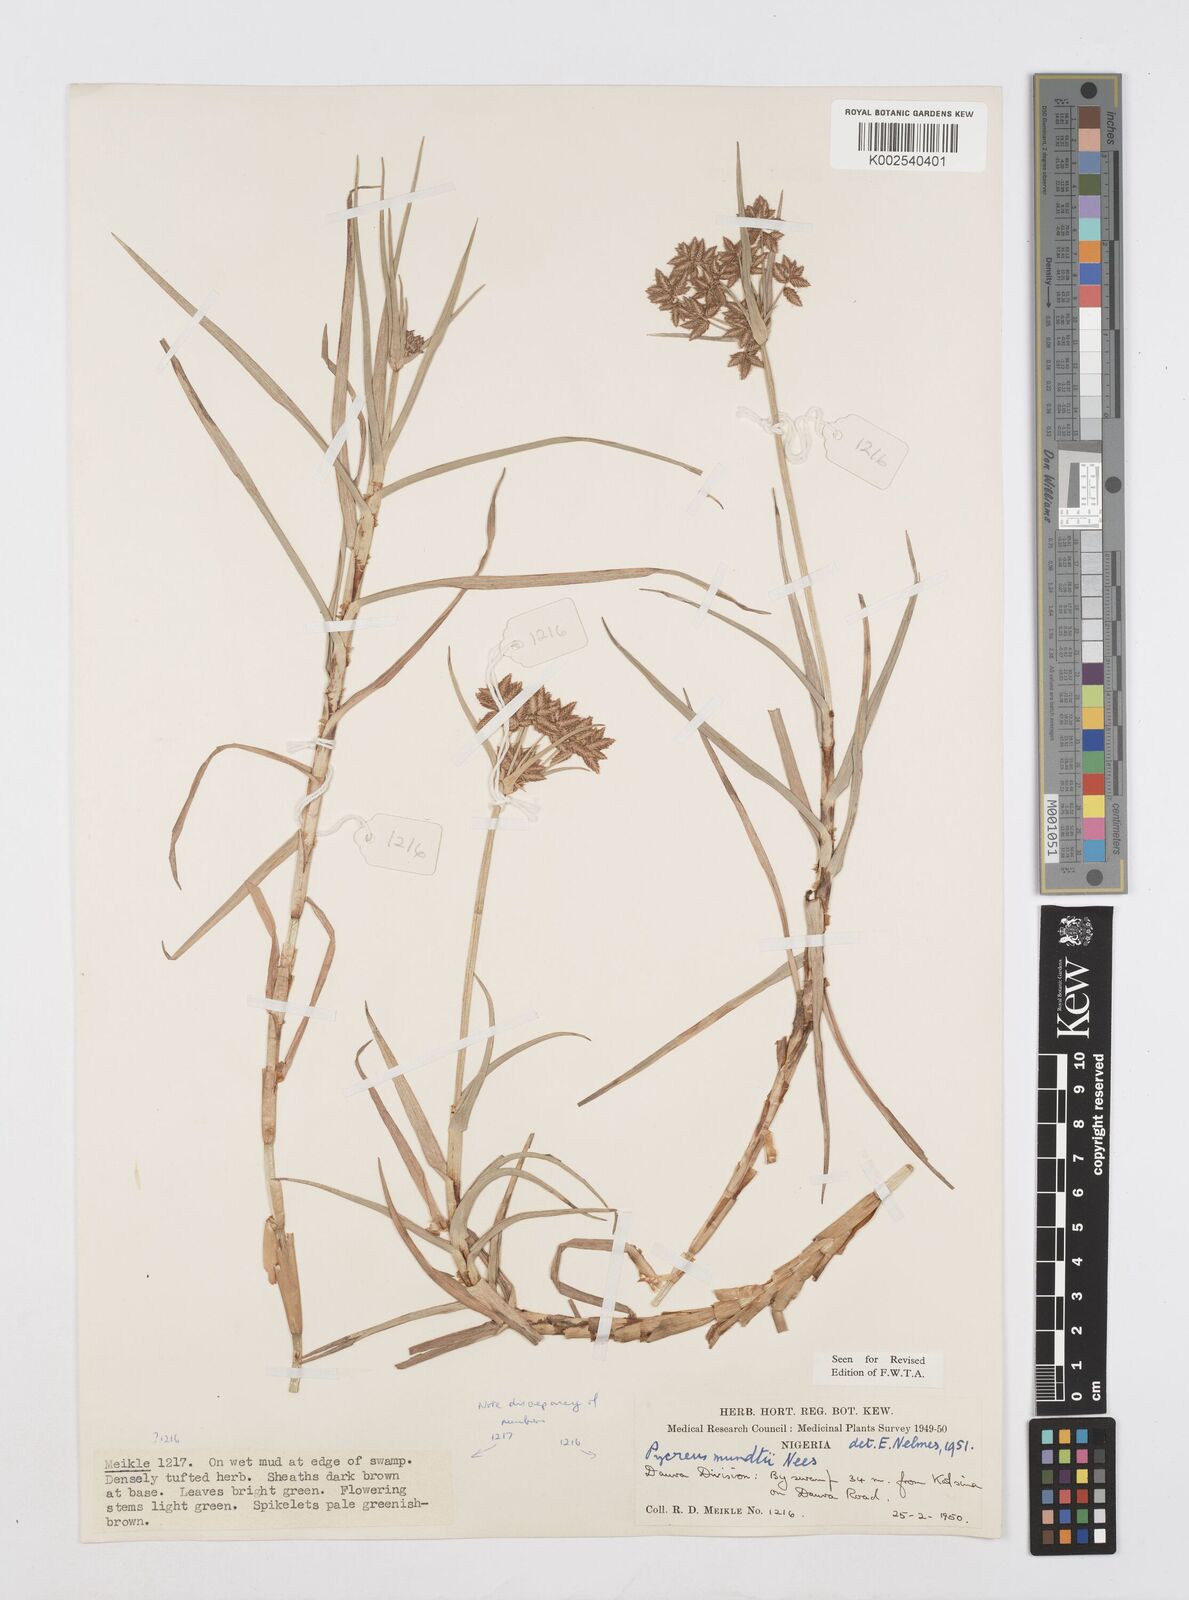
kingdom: Plantae
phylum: Tracheophyta
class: Liliopsida
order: Poales
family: Cyperaceae
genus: Cyperus
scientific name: Cyperus mundii
